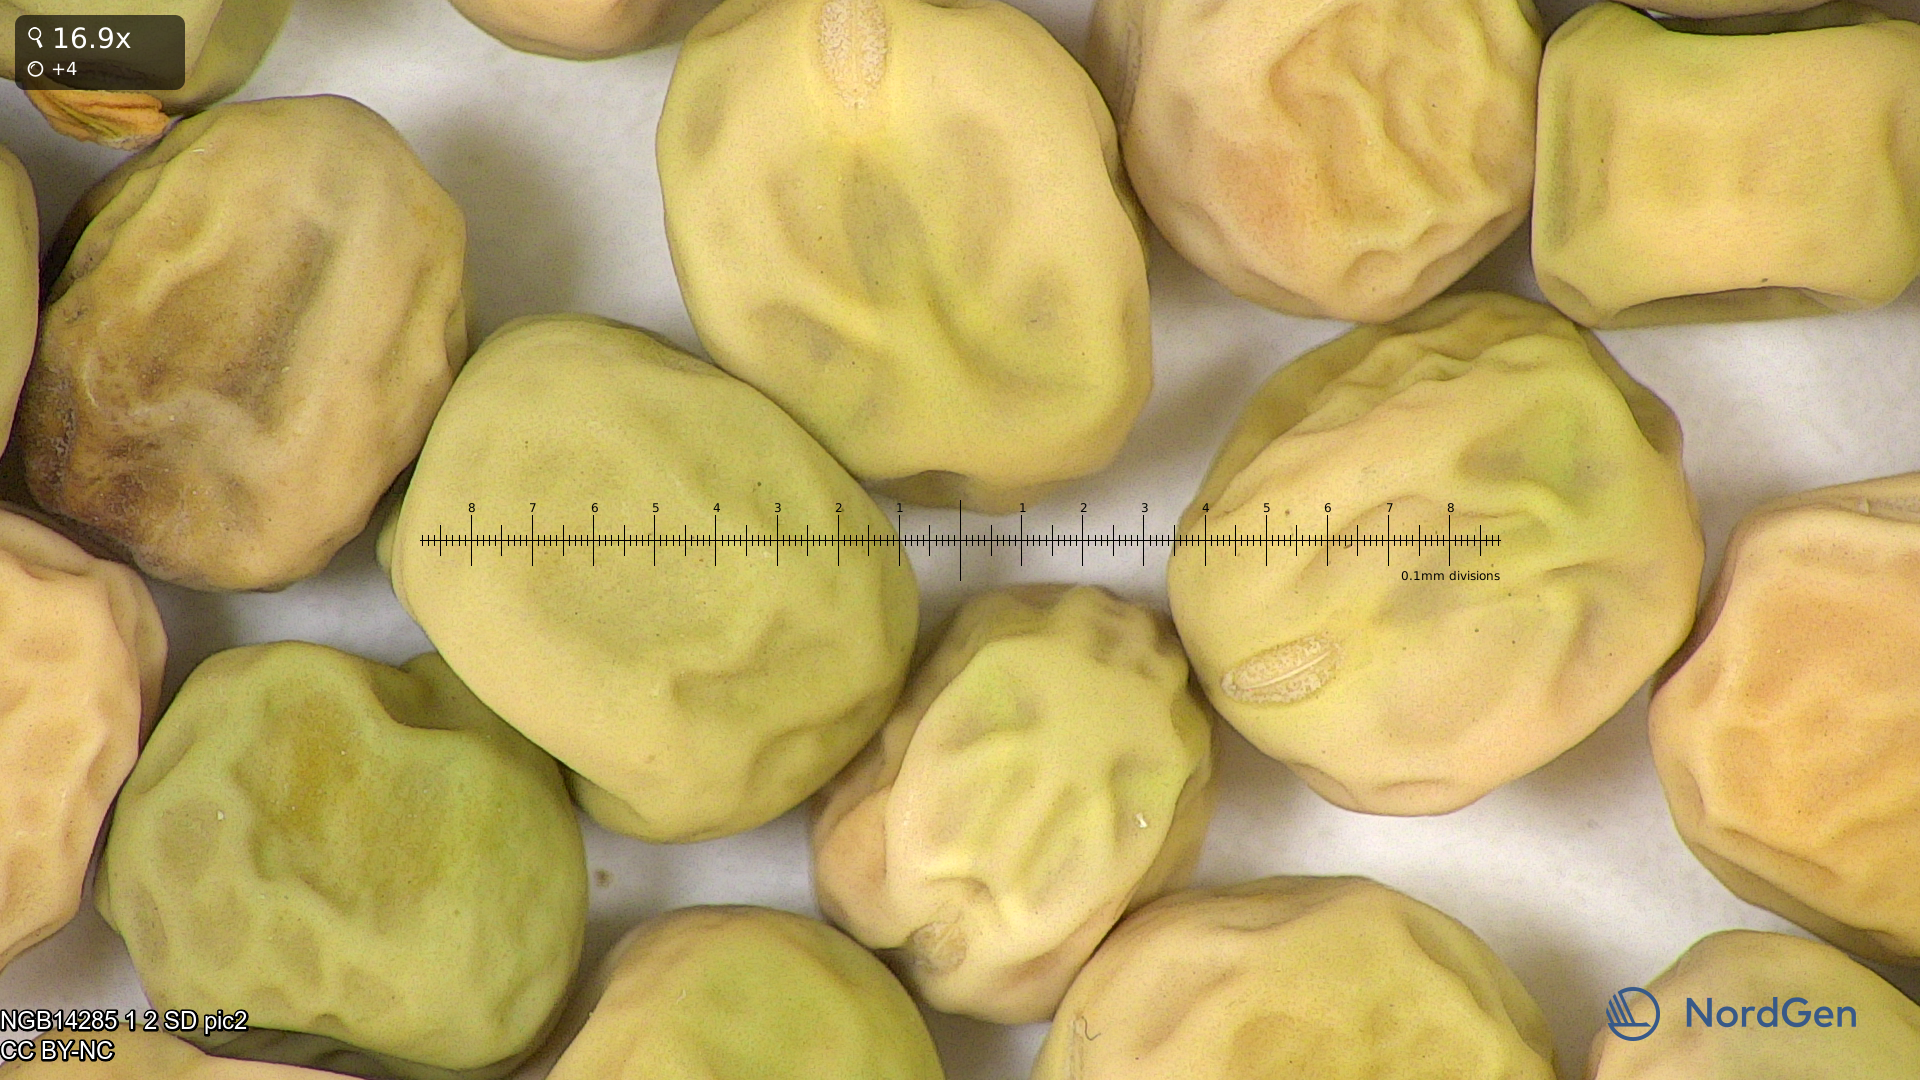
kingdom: Plantae
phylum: Tracheophyta
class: Magnoliopsida
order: Fabales
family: Fabaceae
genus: Lathyrus
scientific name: Lathyrus oleraceus
